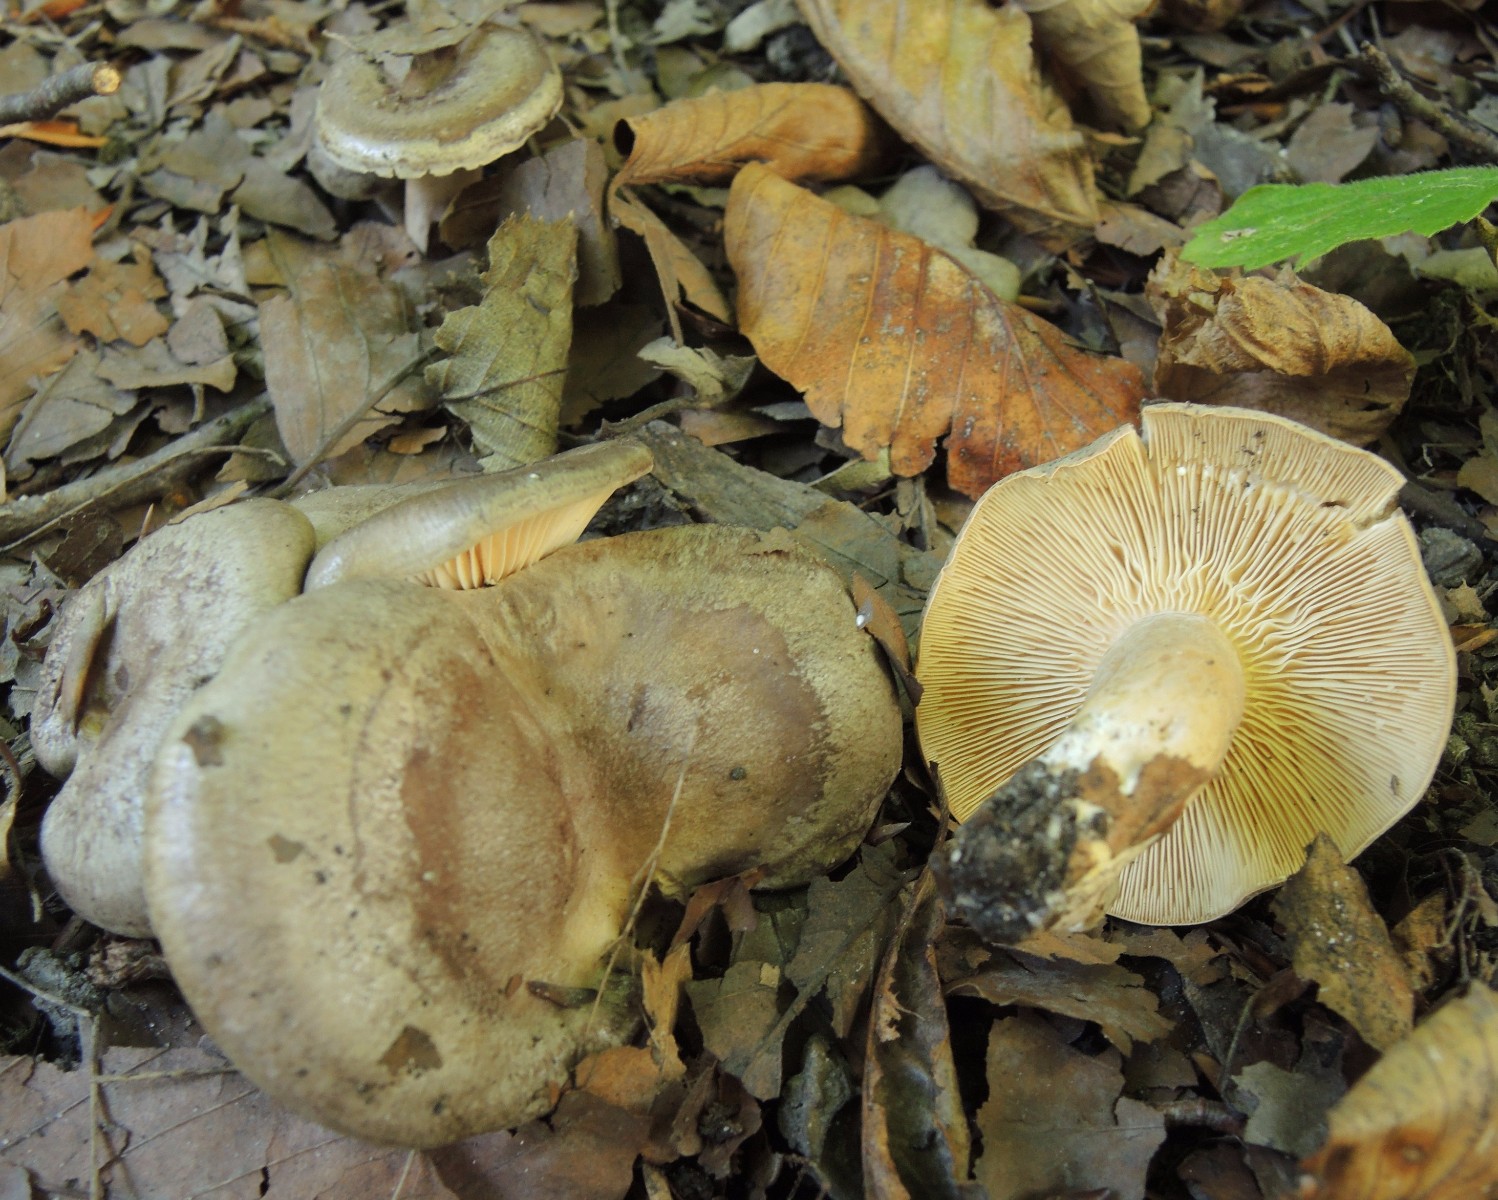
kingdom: Fungi
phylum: Basidiomycota
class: Agaricomycetes
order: Russulales
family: Russulaceae
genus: Lactarius
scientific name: Lactarius circellatus
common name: avnbøg-mælkehat
